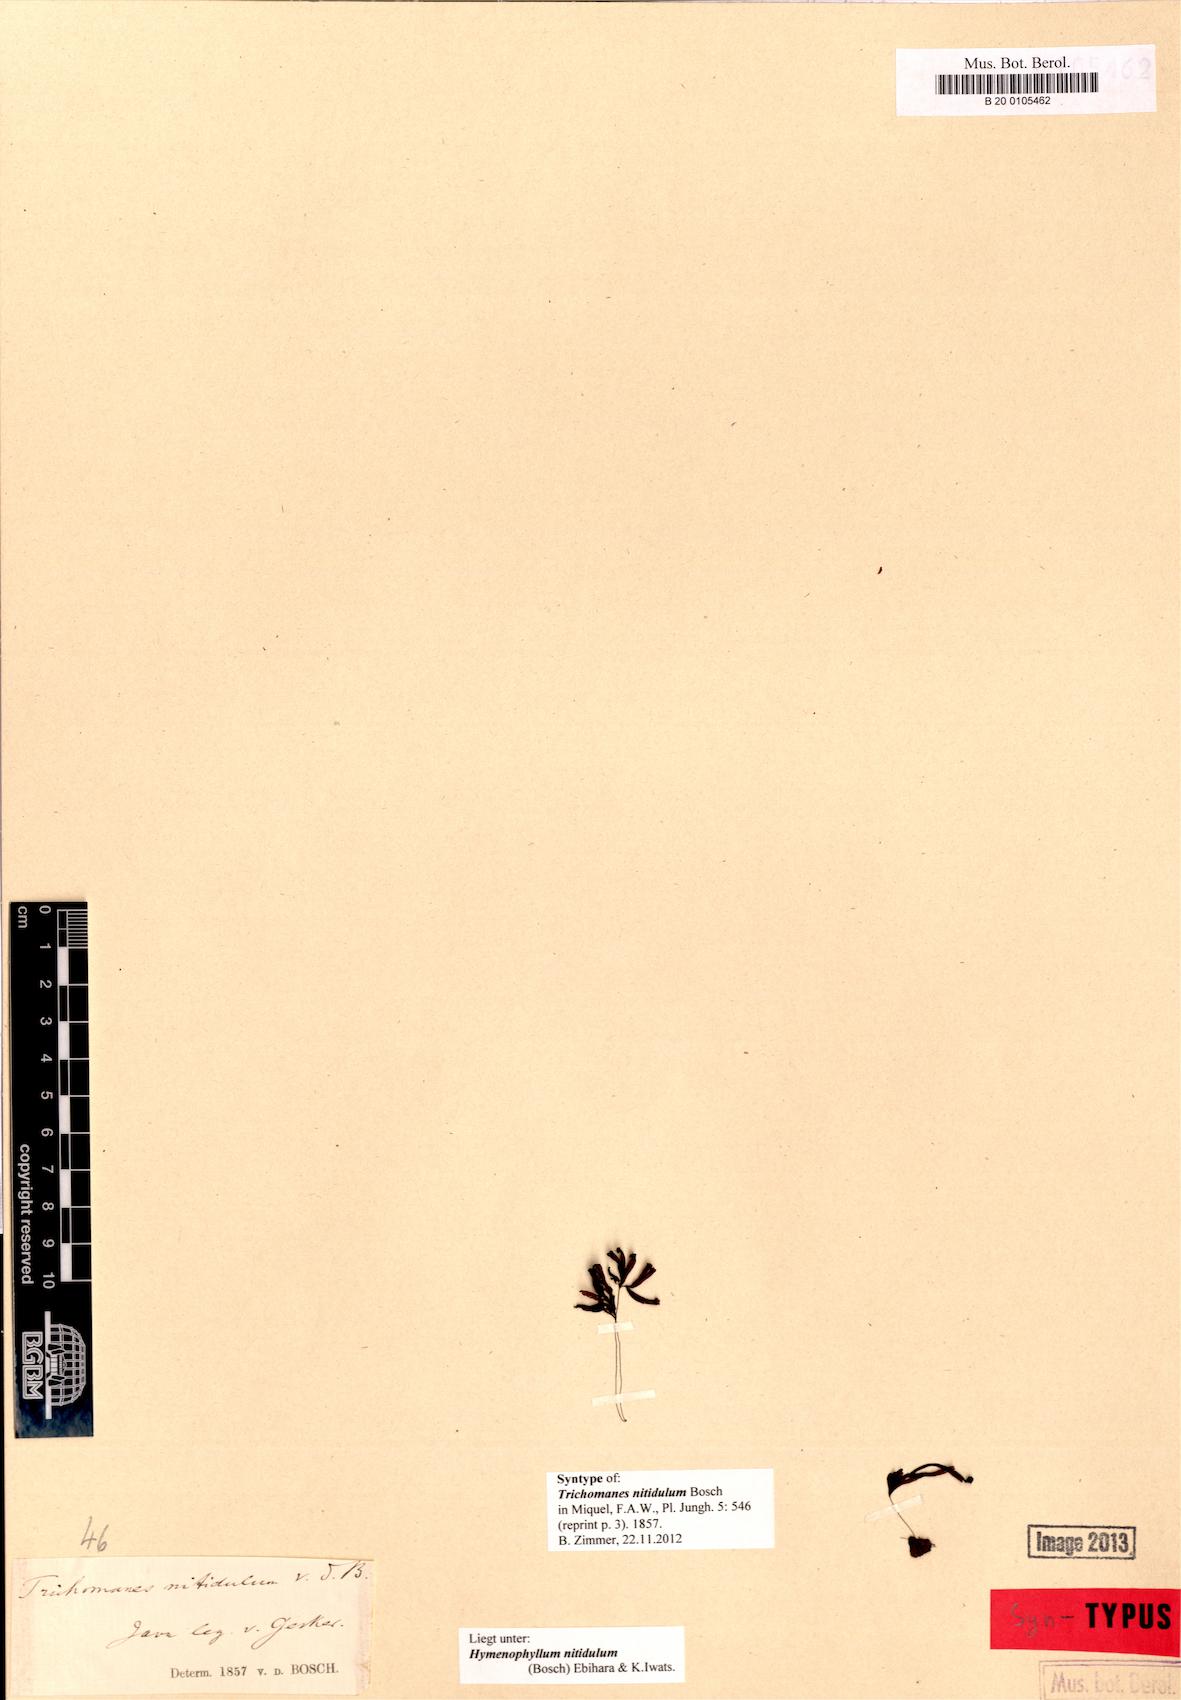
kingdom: Plantae
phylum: Tracheophyta
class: Polypodiopsida
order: Hymenophyllales
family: Hymenophyllaceae
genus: Hymenophyllum
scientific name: Hymenophyllum nitidulum
